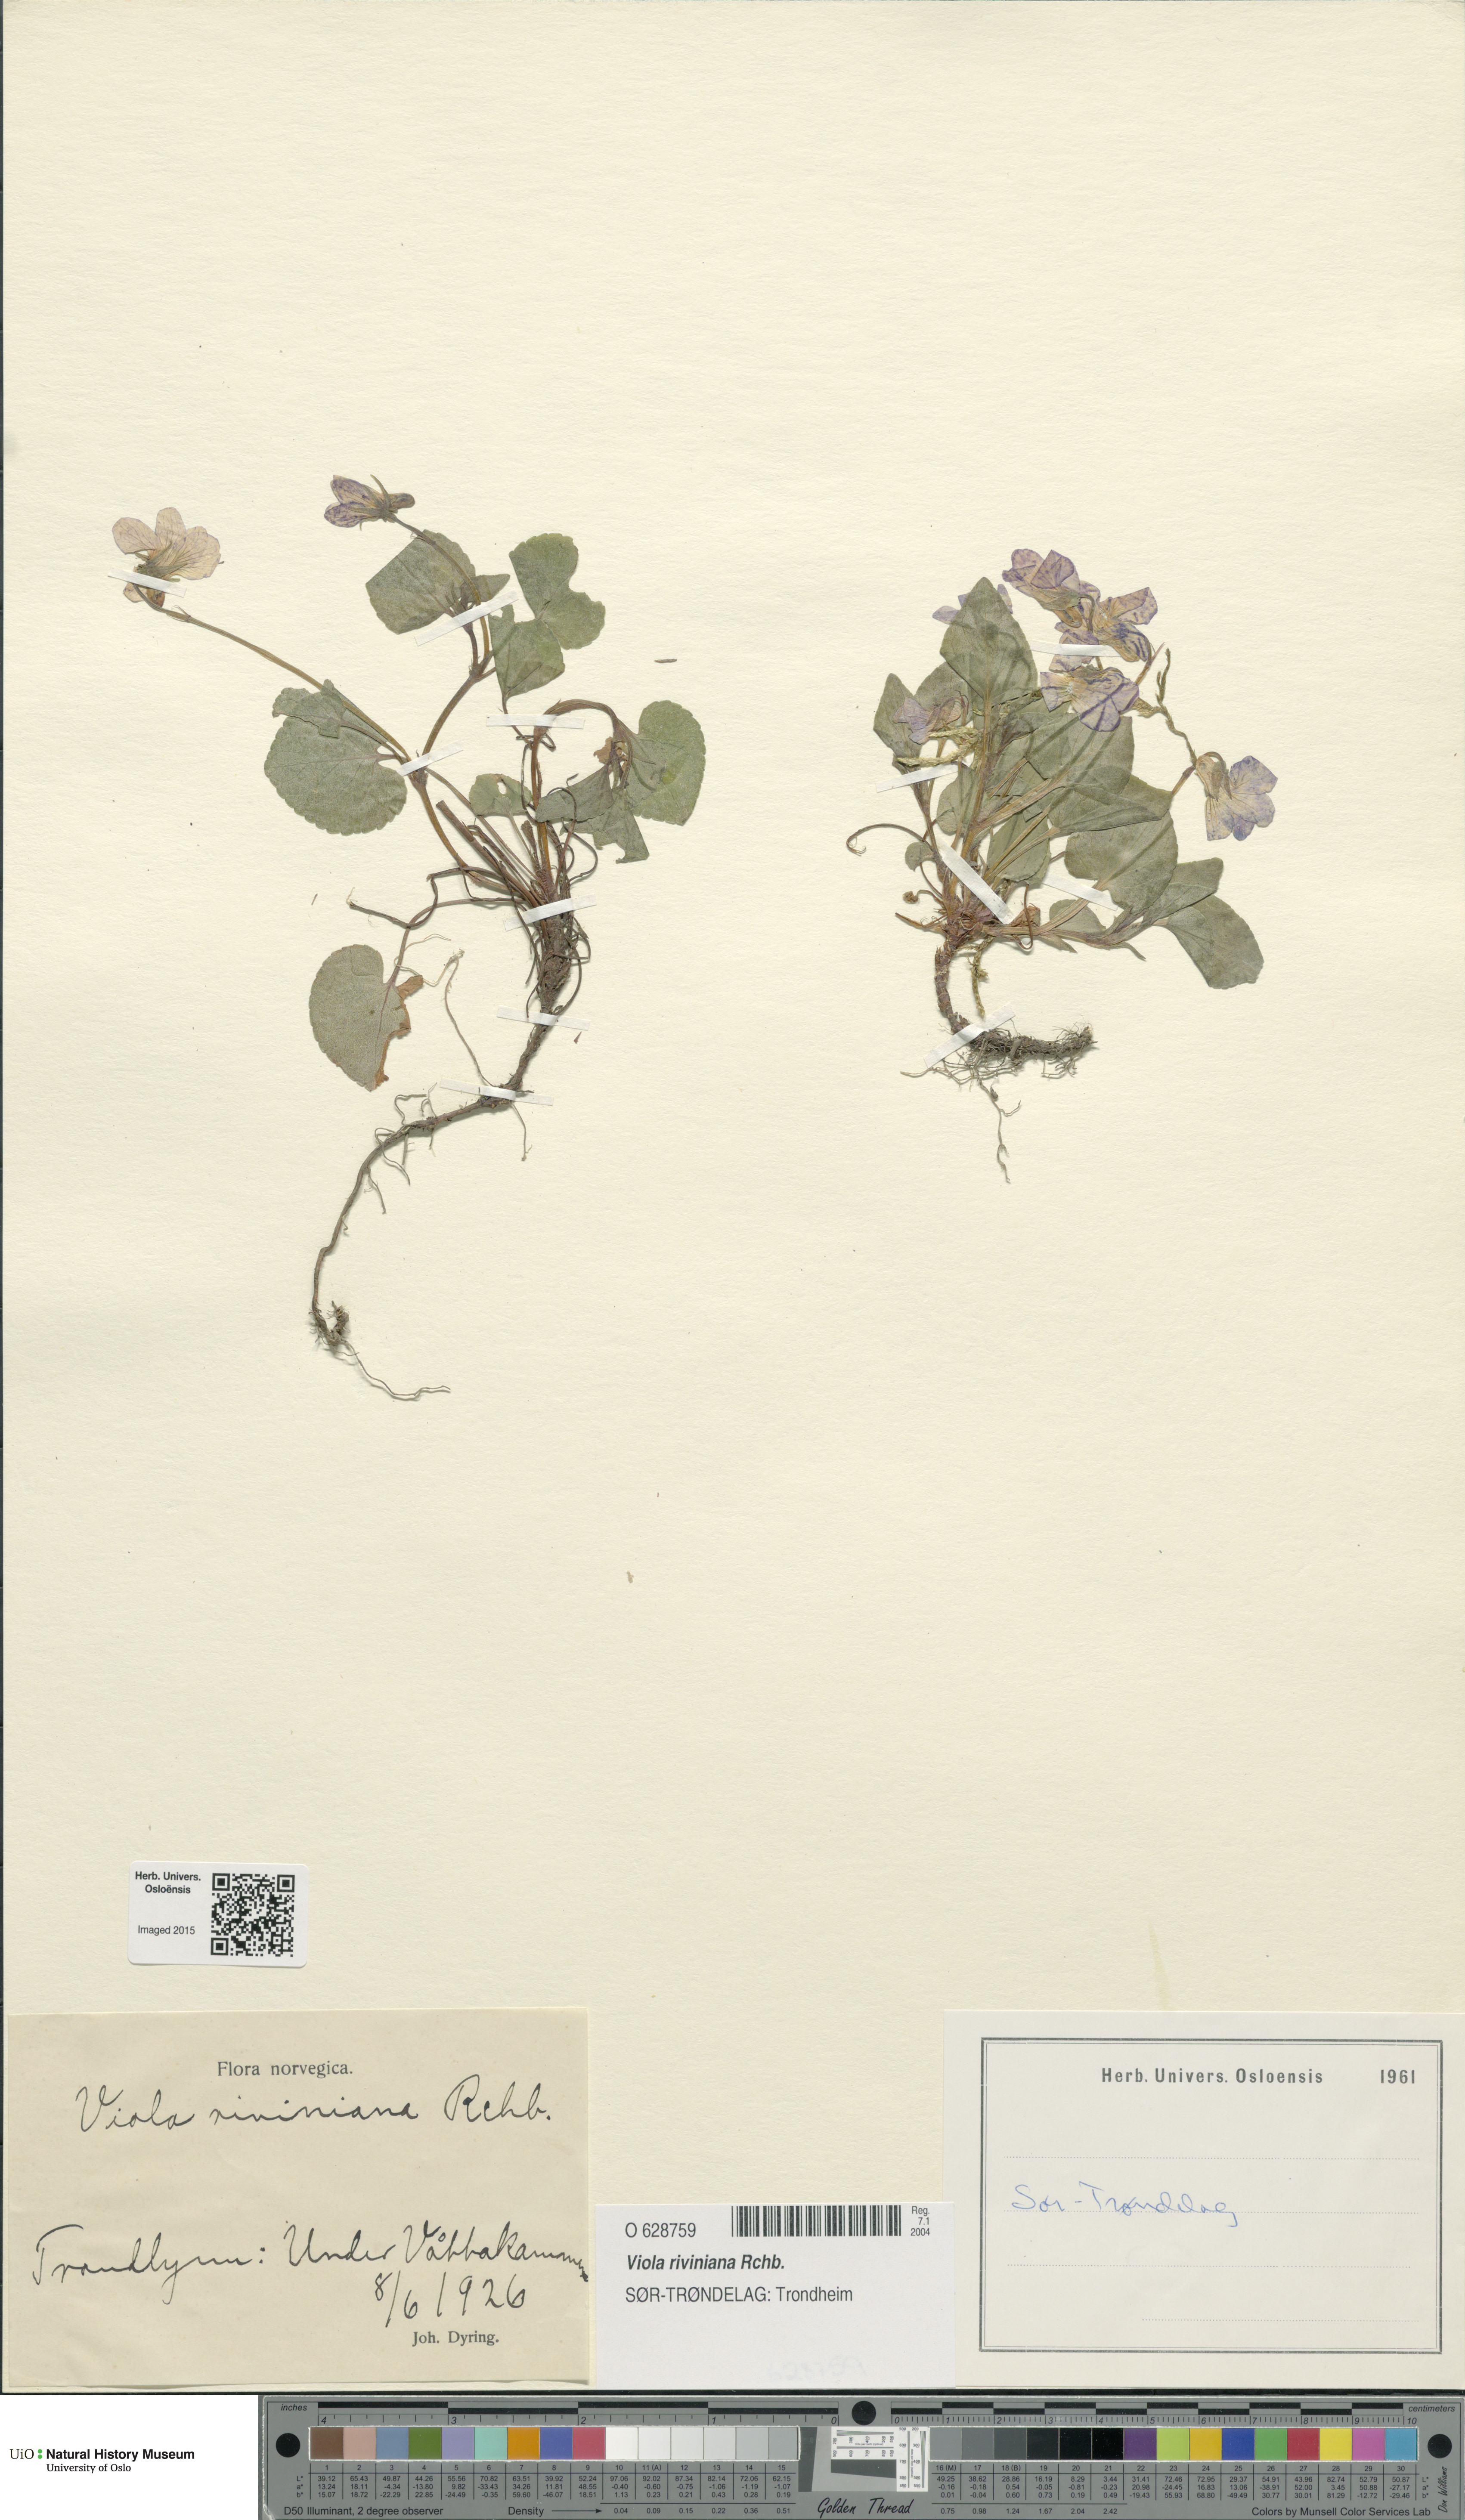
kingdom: Plantae
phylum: Tracheophyta
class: Magnoliopsida
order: Malpighiales
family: Violaceae
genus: Viola
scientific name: Viola riviniana
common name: Common dog-violet
